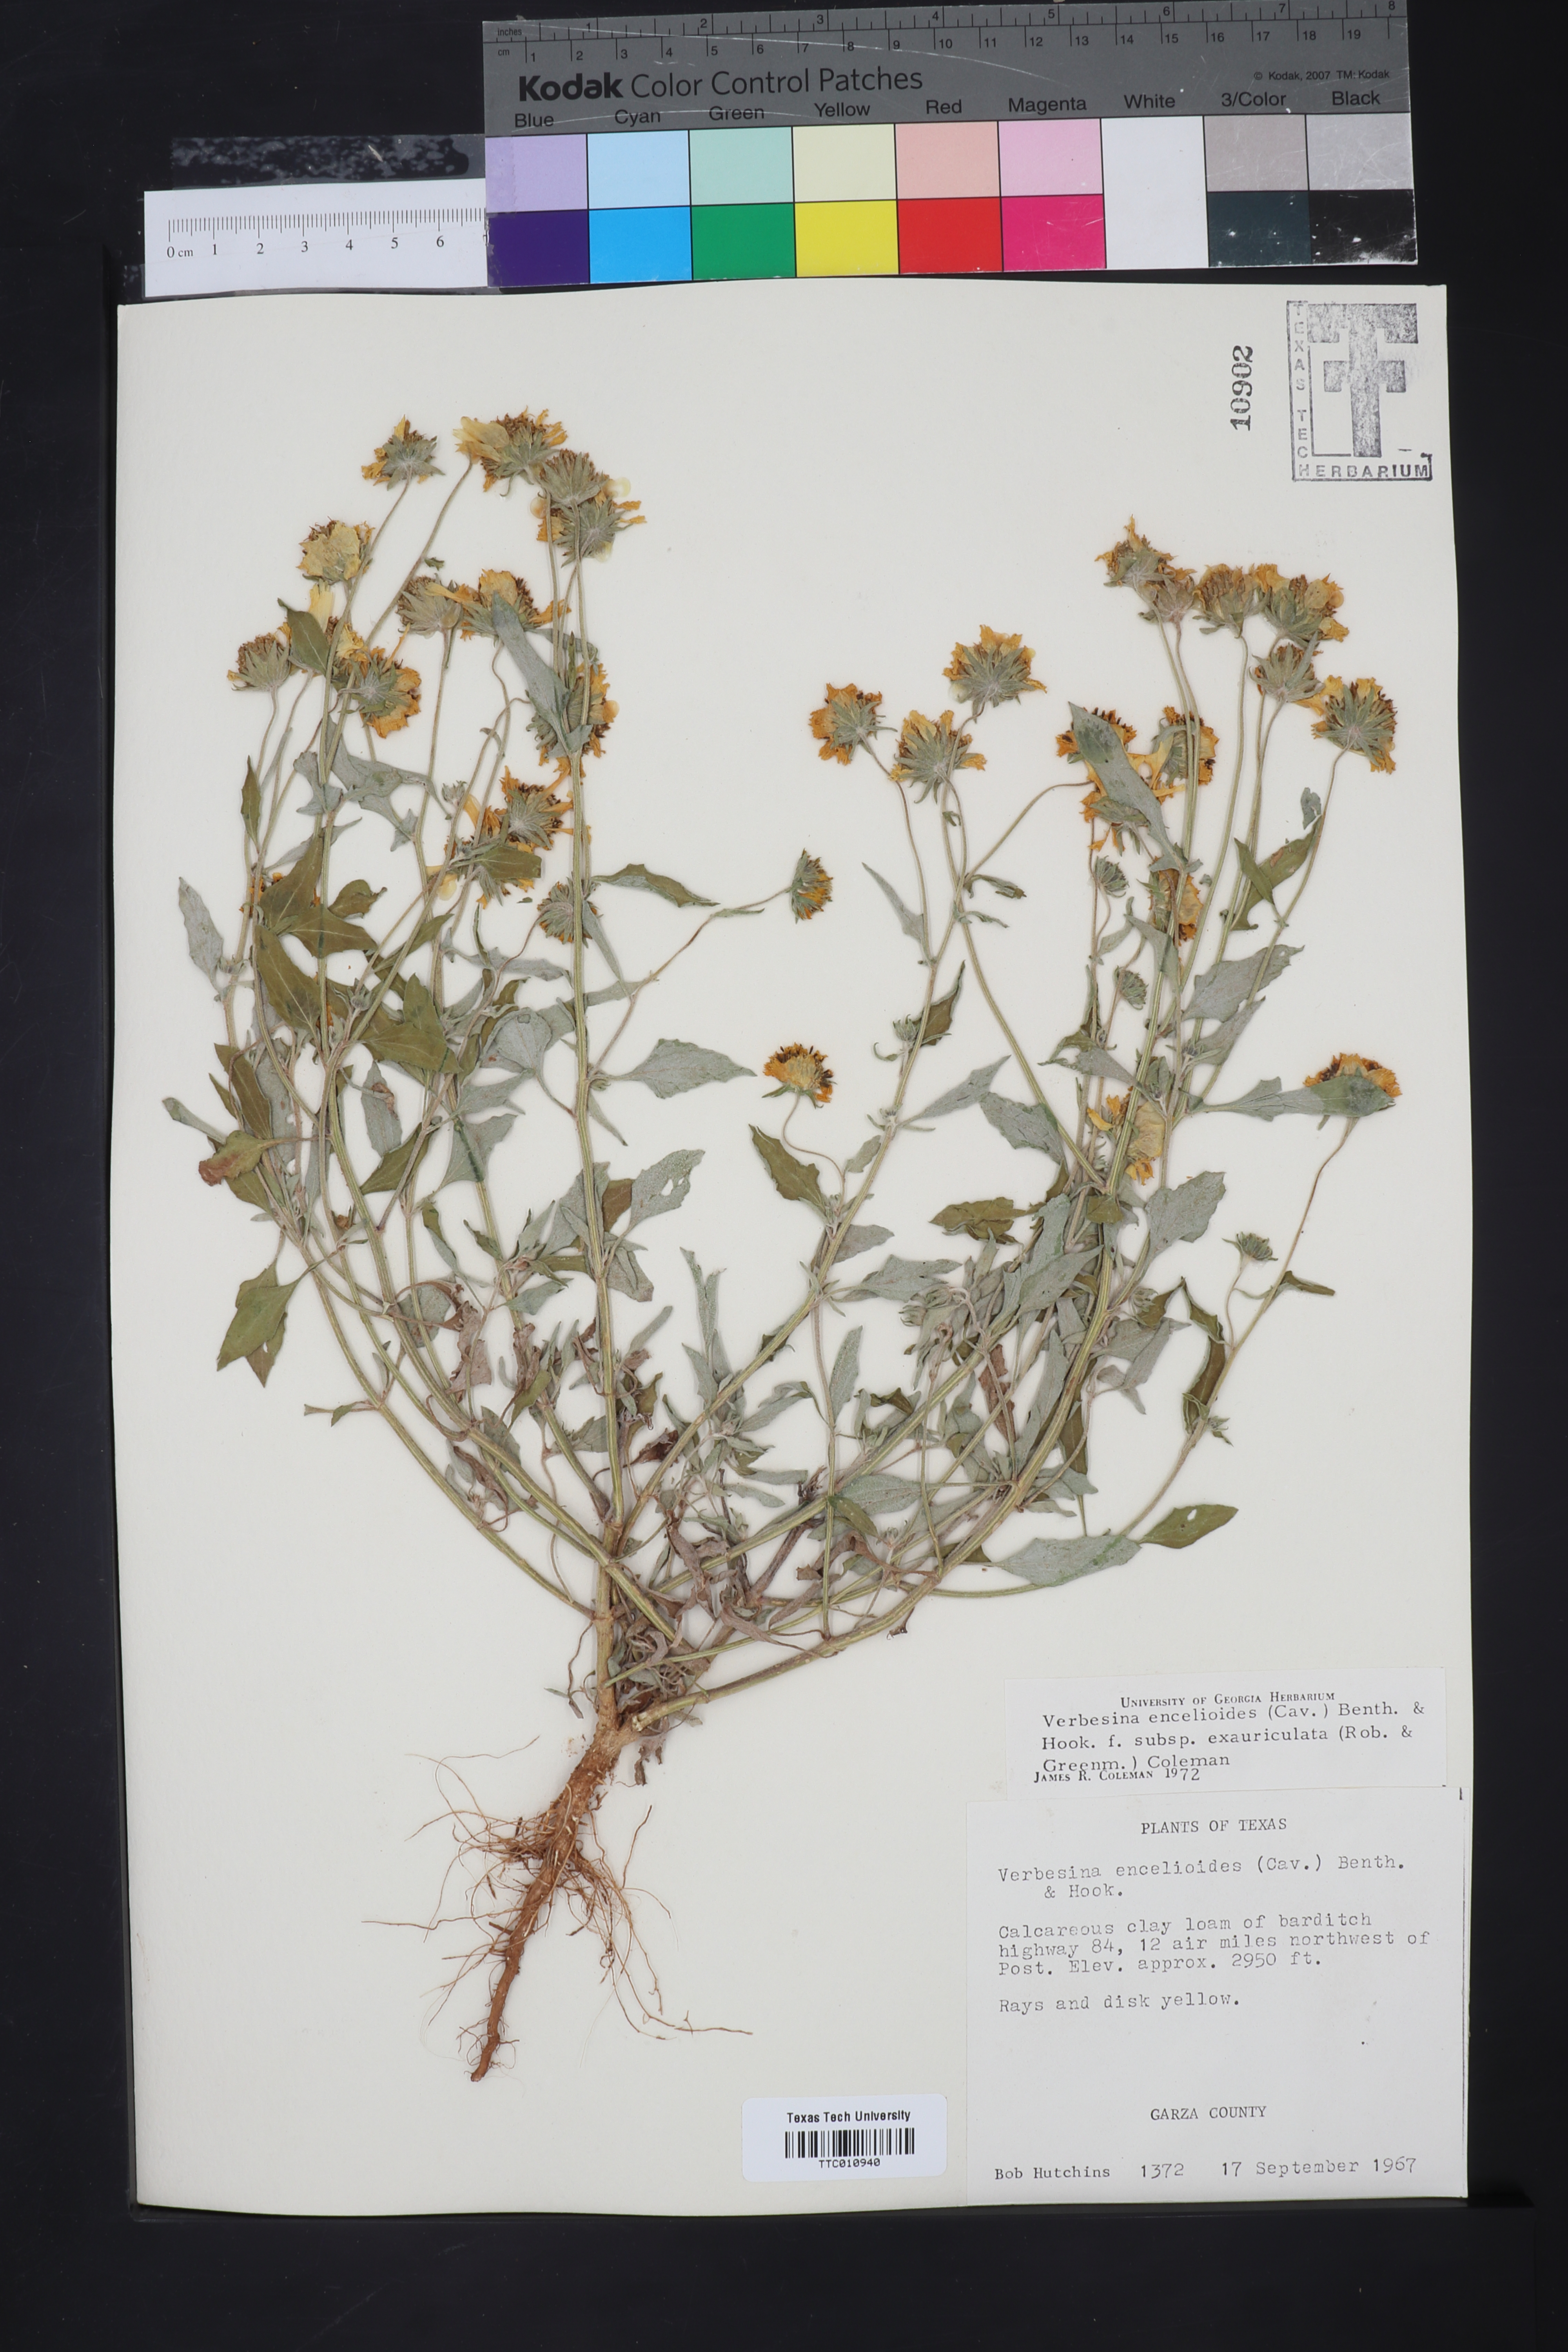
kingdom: Plantae
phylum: Tracheophyta
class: Magnoliopsida
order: Asterales
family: Asteraceae
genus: Verbesina
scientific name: Verbesina encelioides
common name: Golden crownbeard
